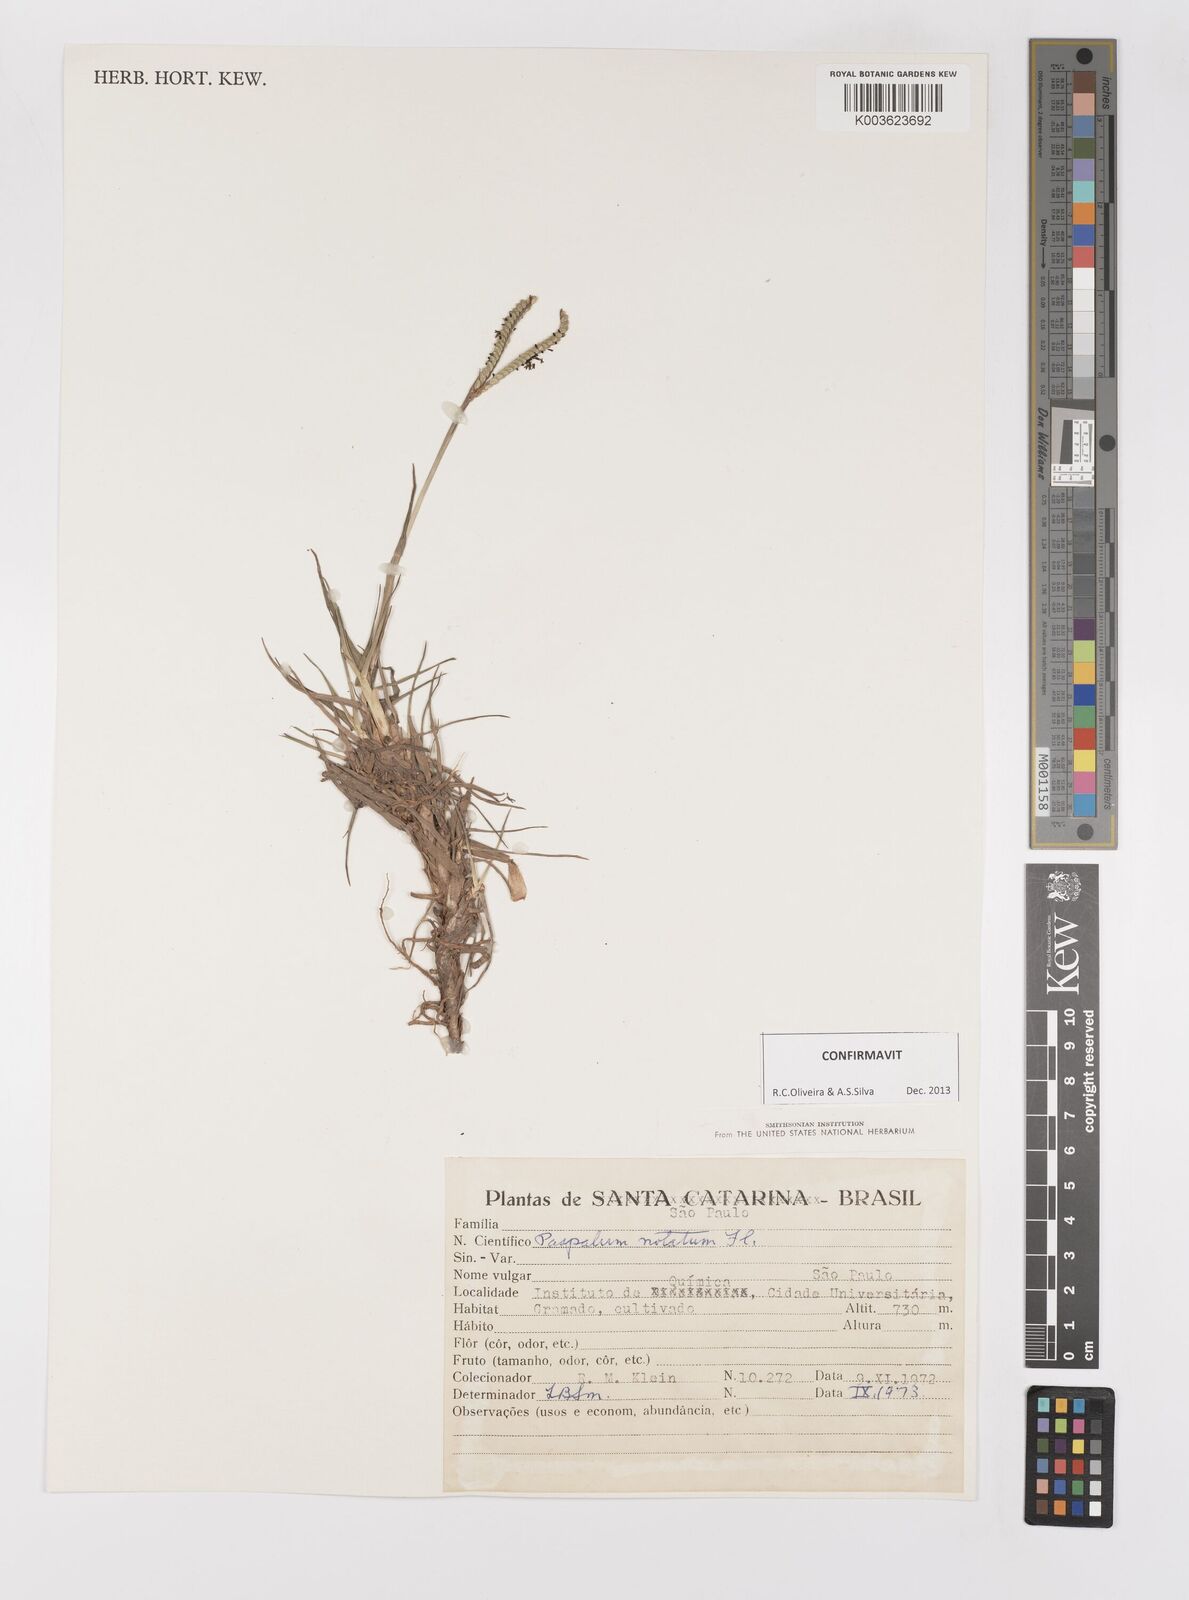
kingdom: Plantae
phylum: Tracheophyta
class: Liliopsida
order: Poales
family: Poaceae
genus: Paspalum
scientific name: Paspalum notatum
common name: Bahiagrass
